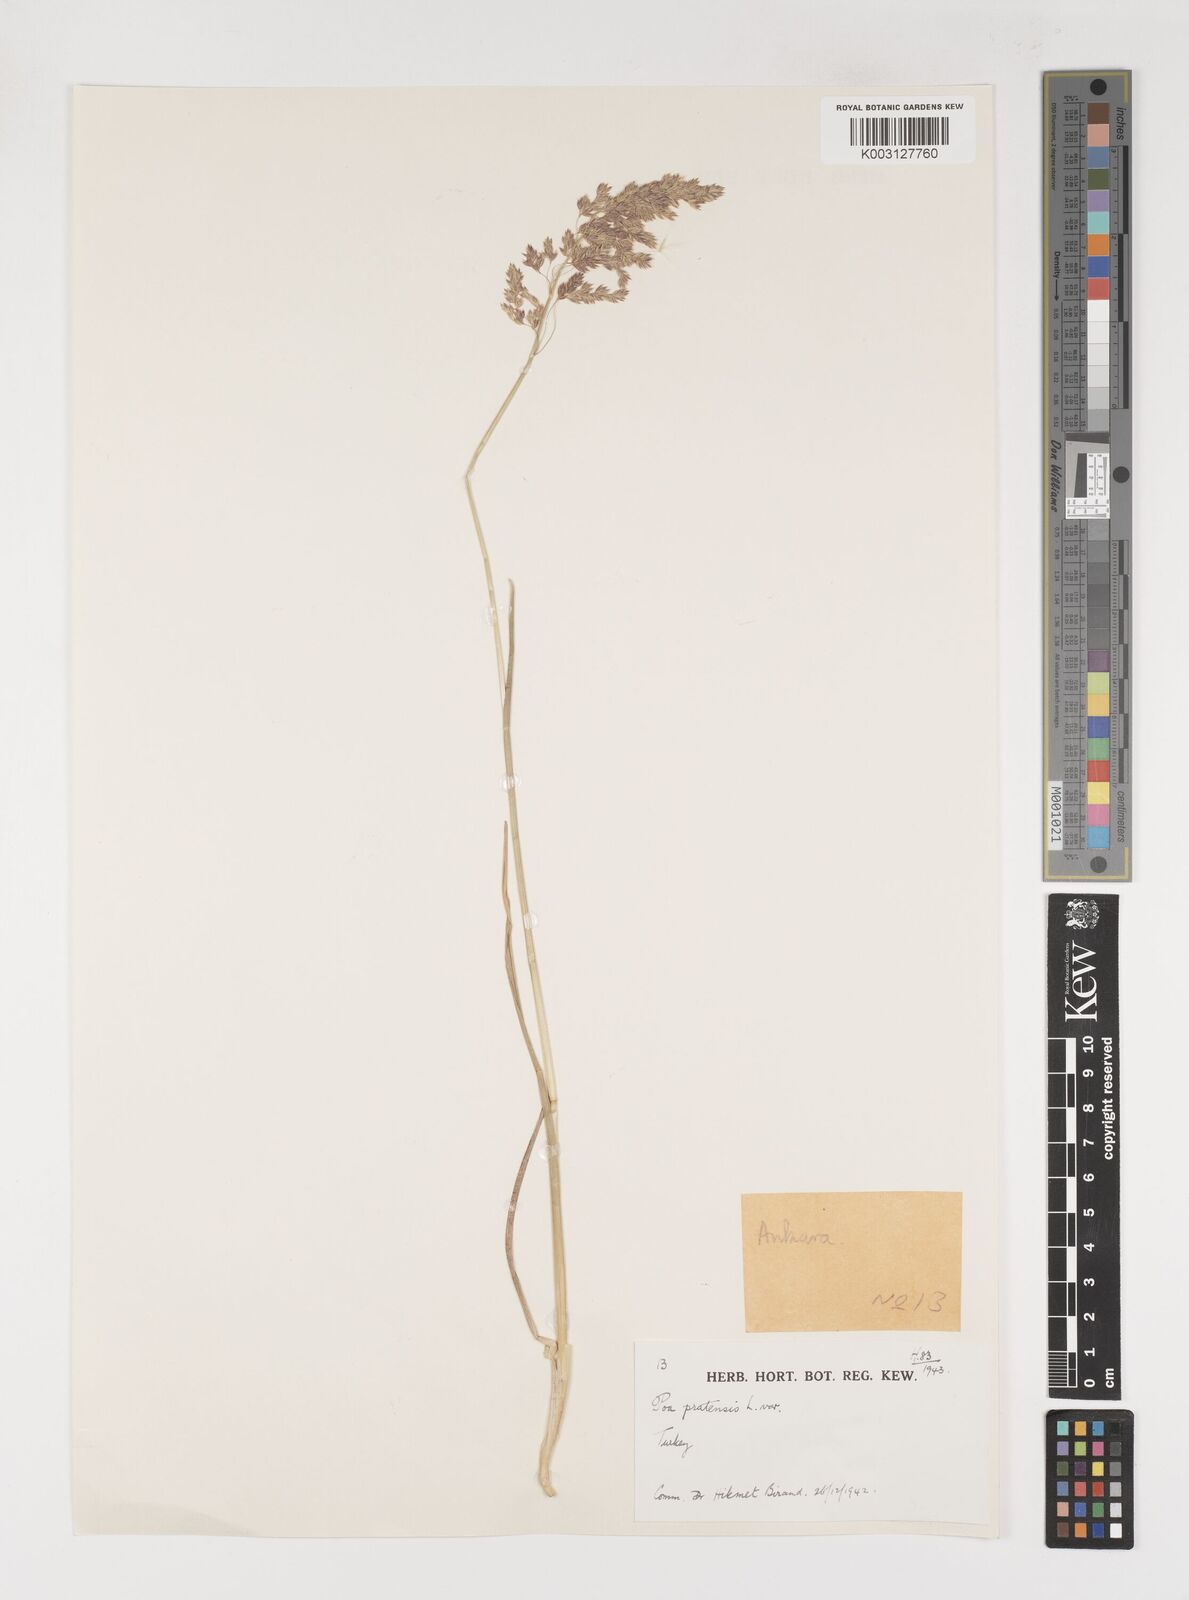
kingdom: Plantae
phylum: Tracheophyta
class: Liliopsida
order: Poales
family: Poaceae
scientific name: Poaceae
